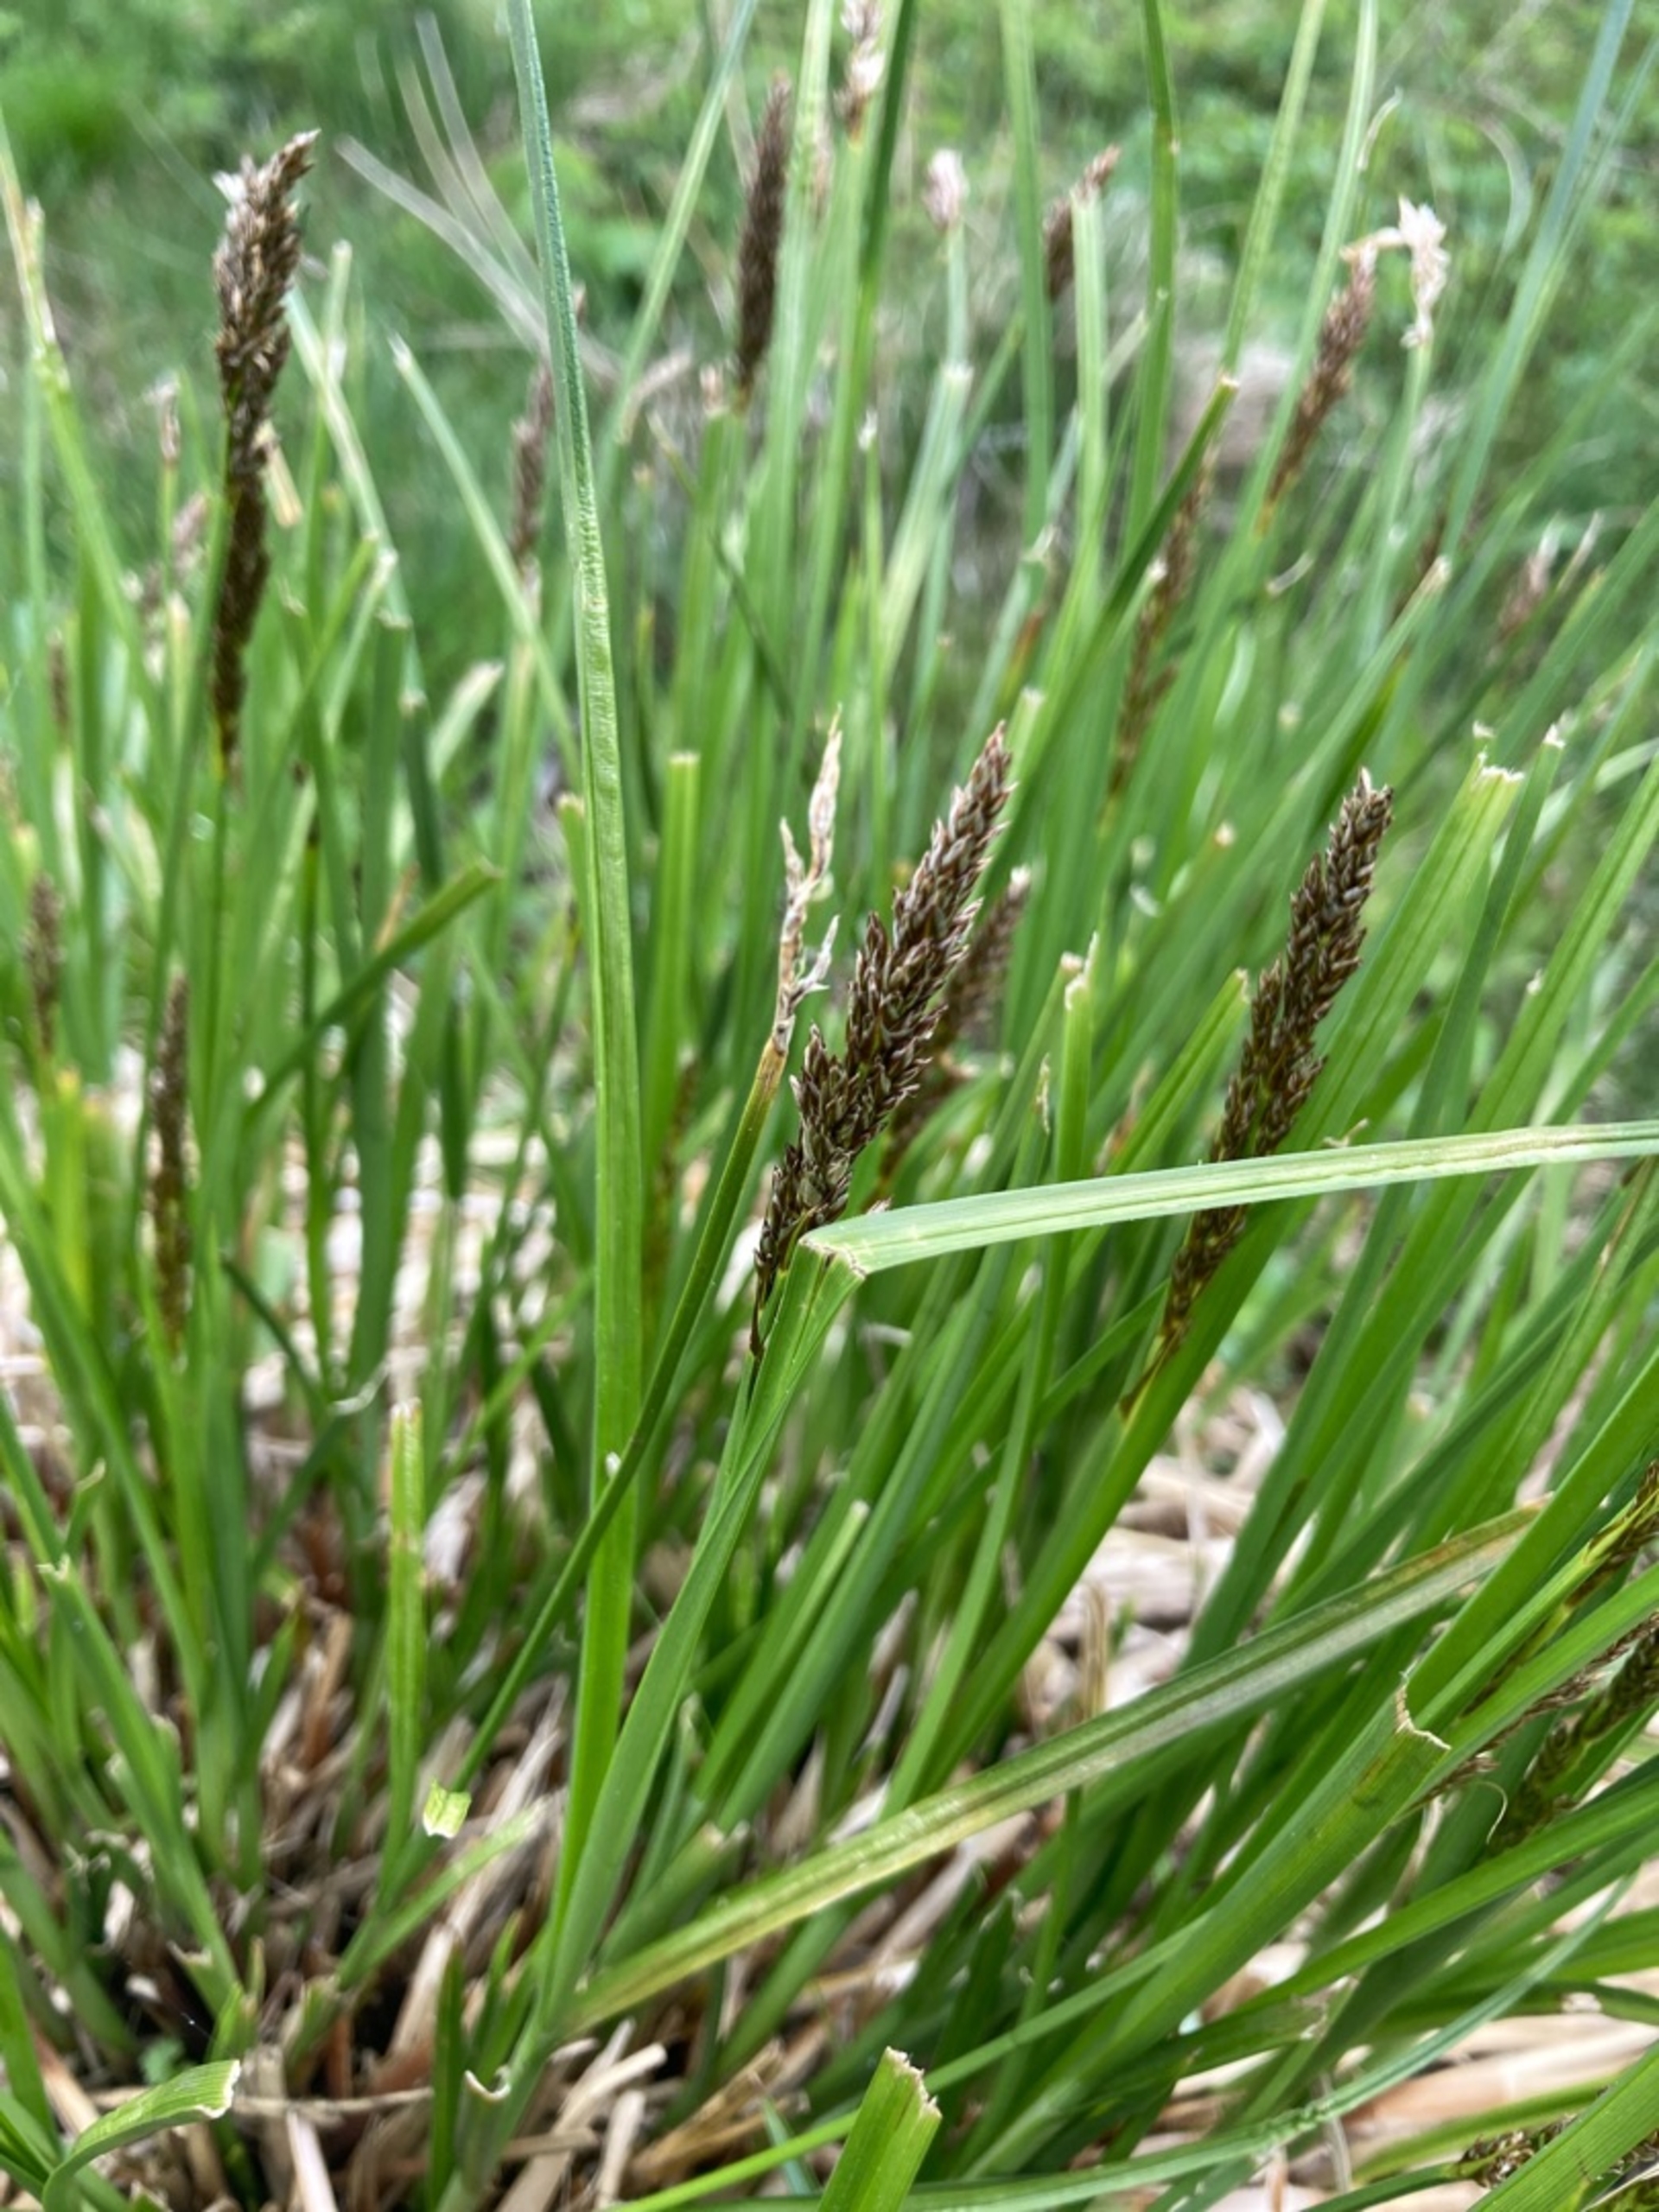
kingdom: Plantae
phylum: Tracheophyta
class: Liliopsida
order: Poales
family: Cyperaceae
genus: Carex
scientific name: Carex paniculata
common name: Top-star
